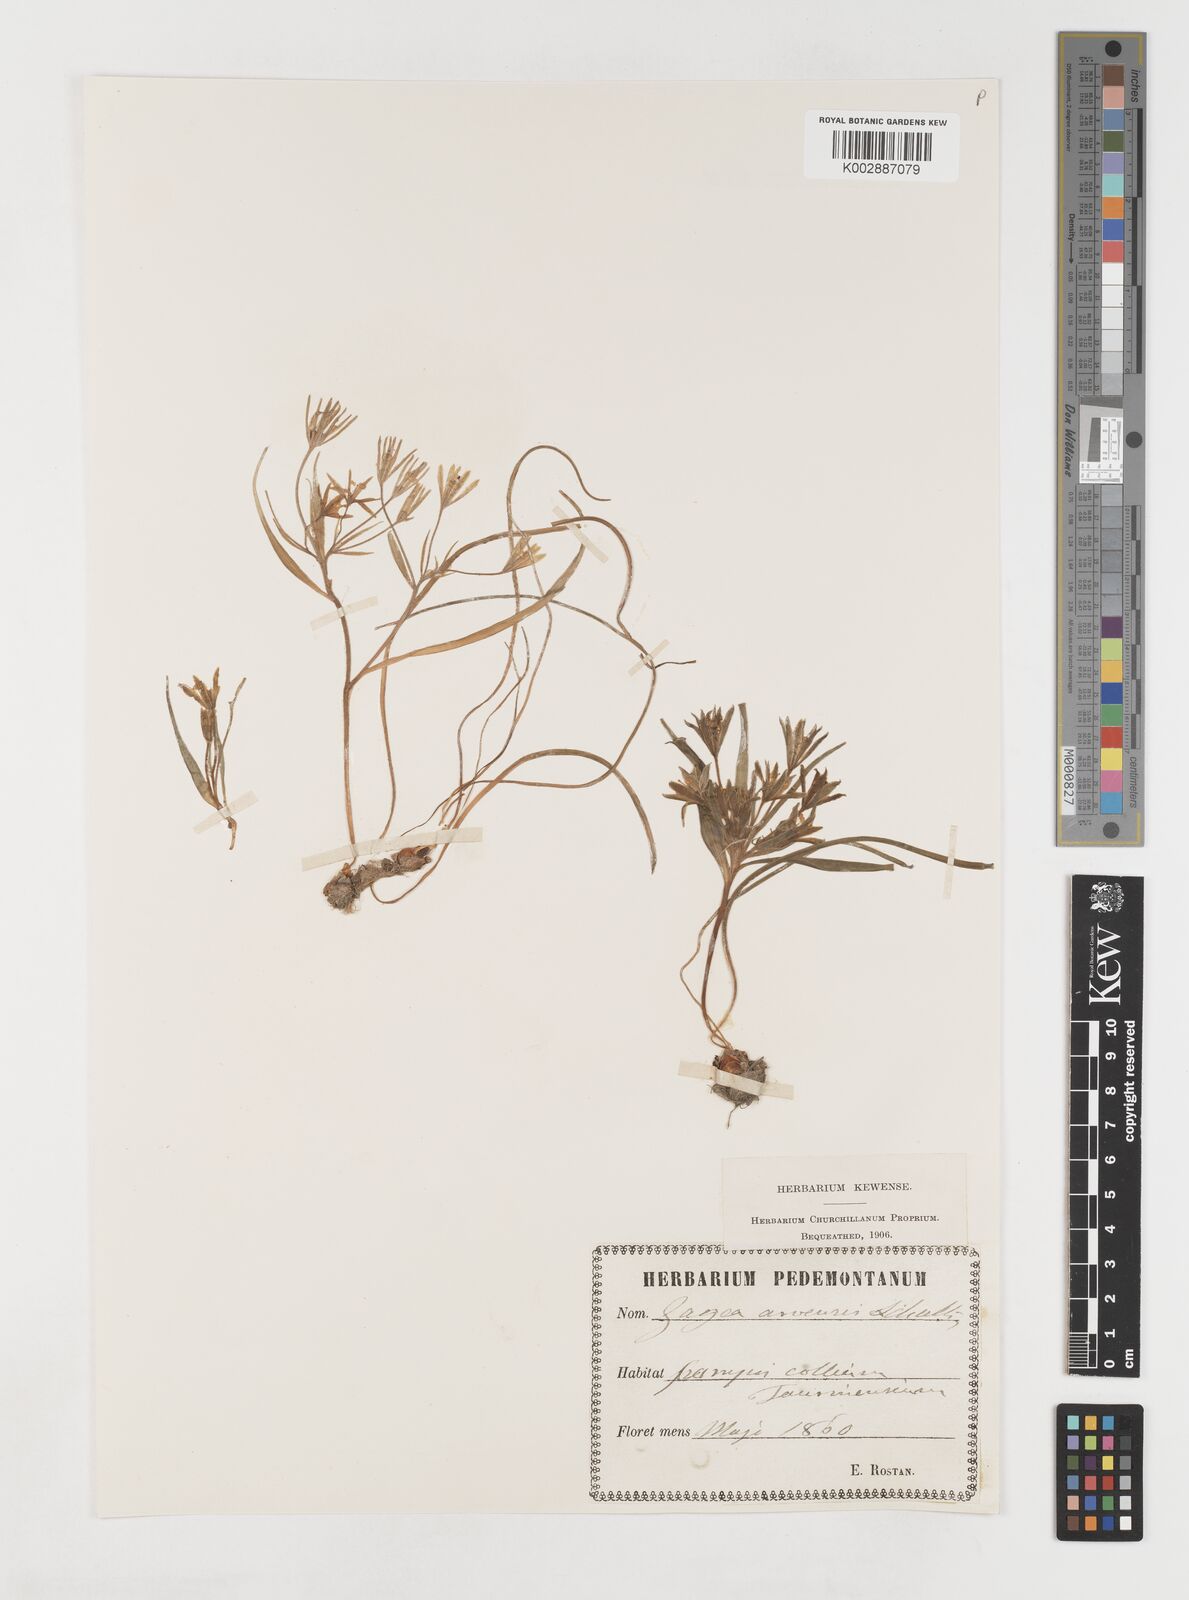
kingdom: Plantae
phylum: Tracheophyta
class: Liliopsida
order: Liliales
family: Liliaceae
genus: Gagea
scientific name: Gagea minima
